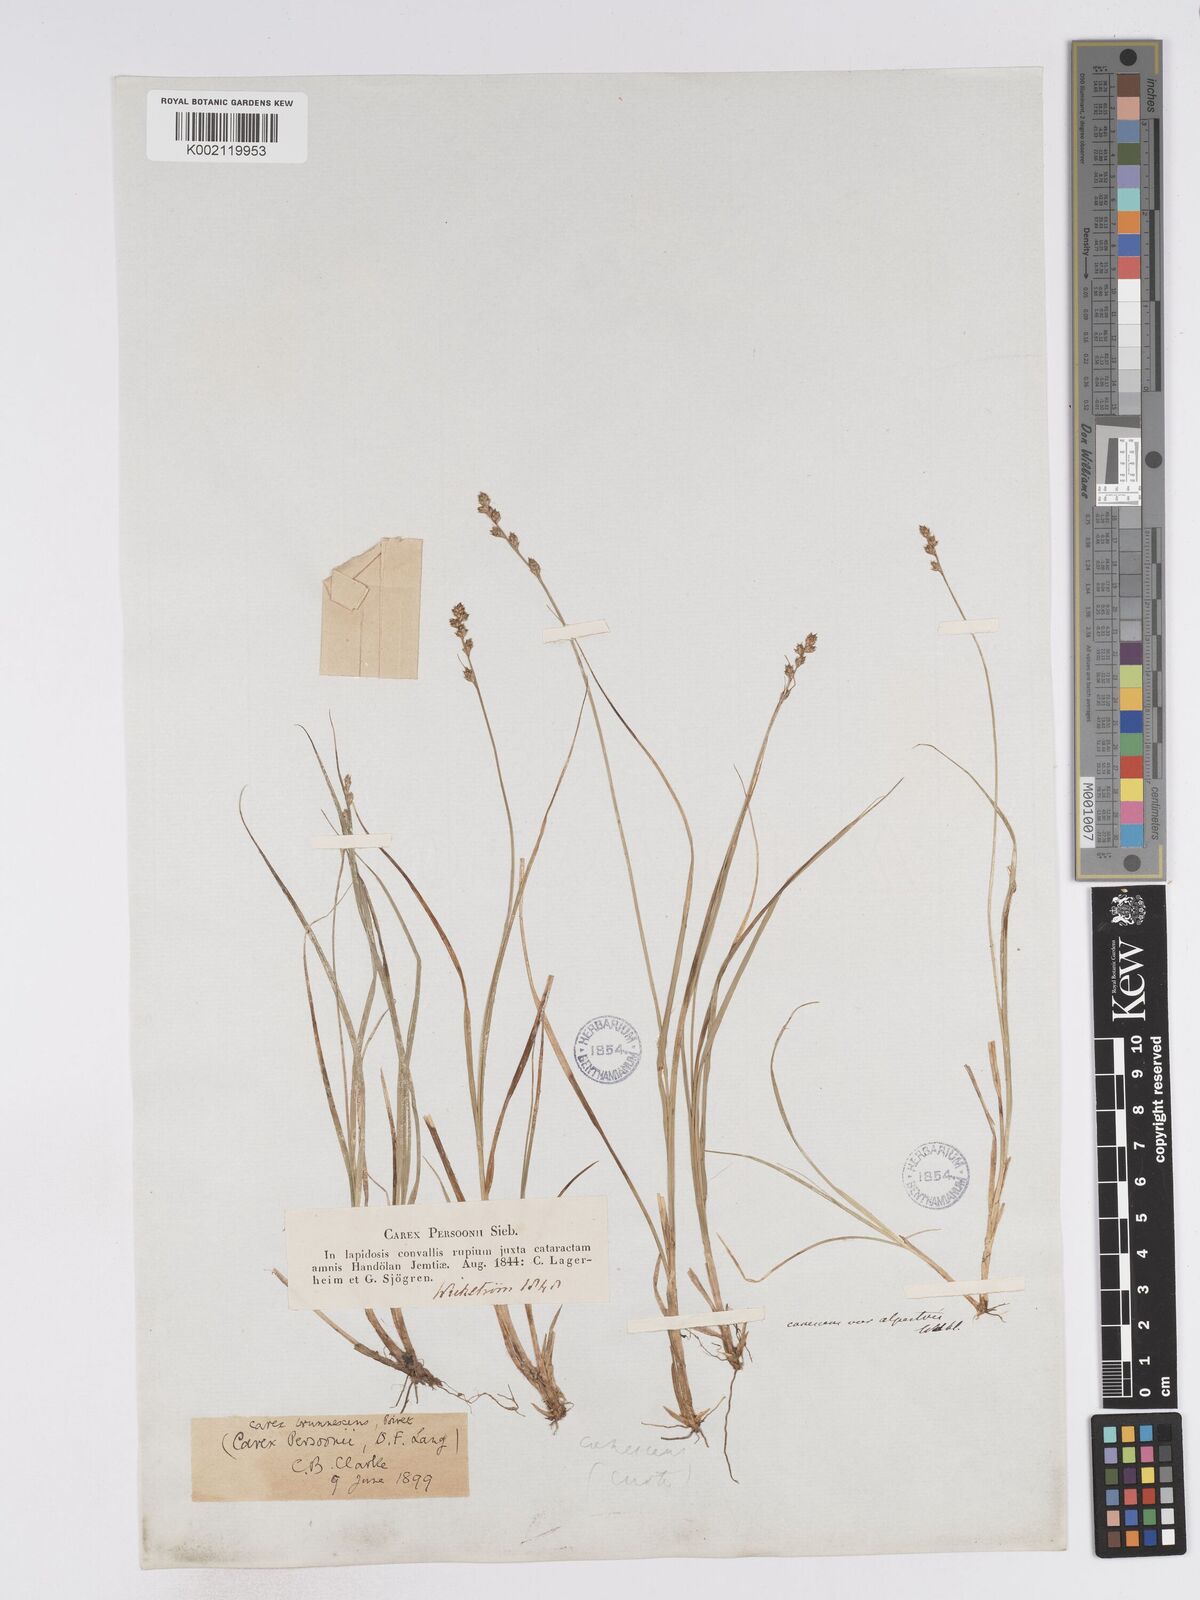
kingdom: Plantae
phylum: Tracheophyta
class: Liliopsida
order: Poales
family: Cyperaceae
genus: Carex
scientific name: Carex canescens
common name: White sedge
